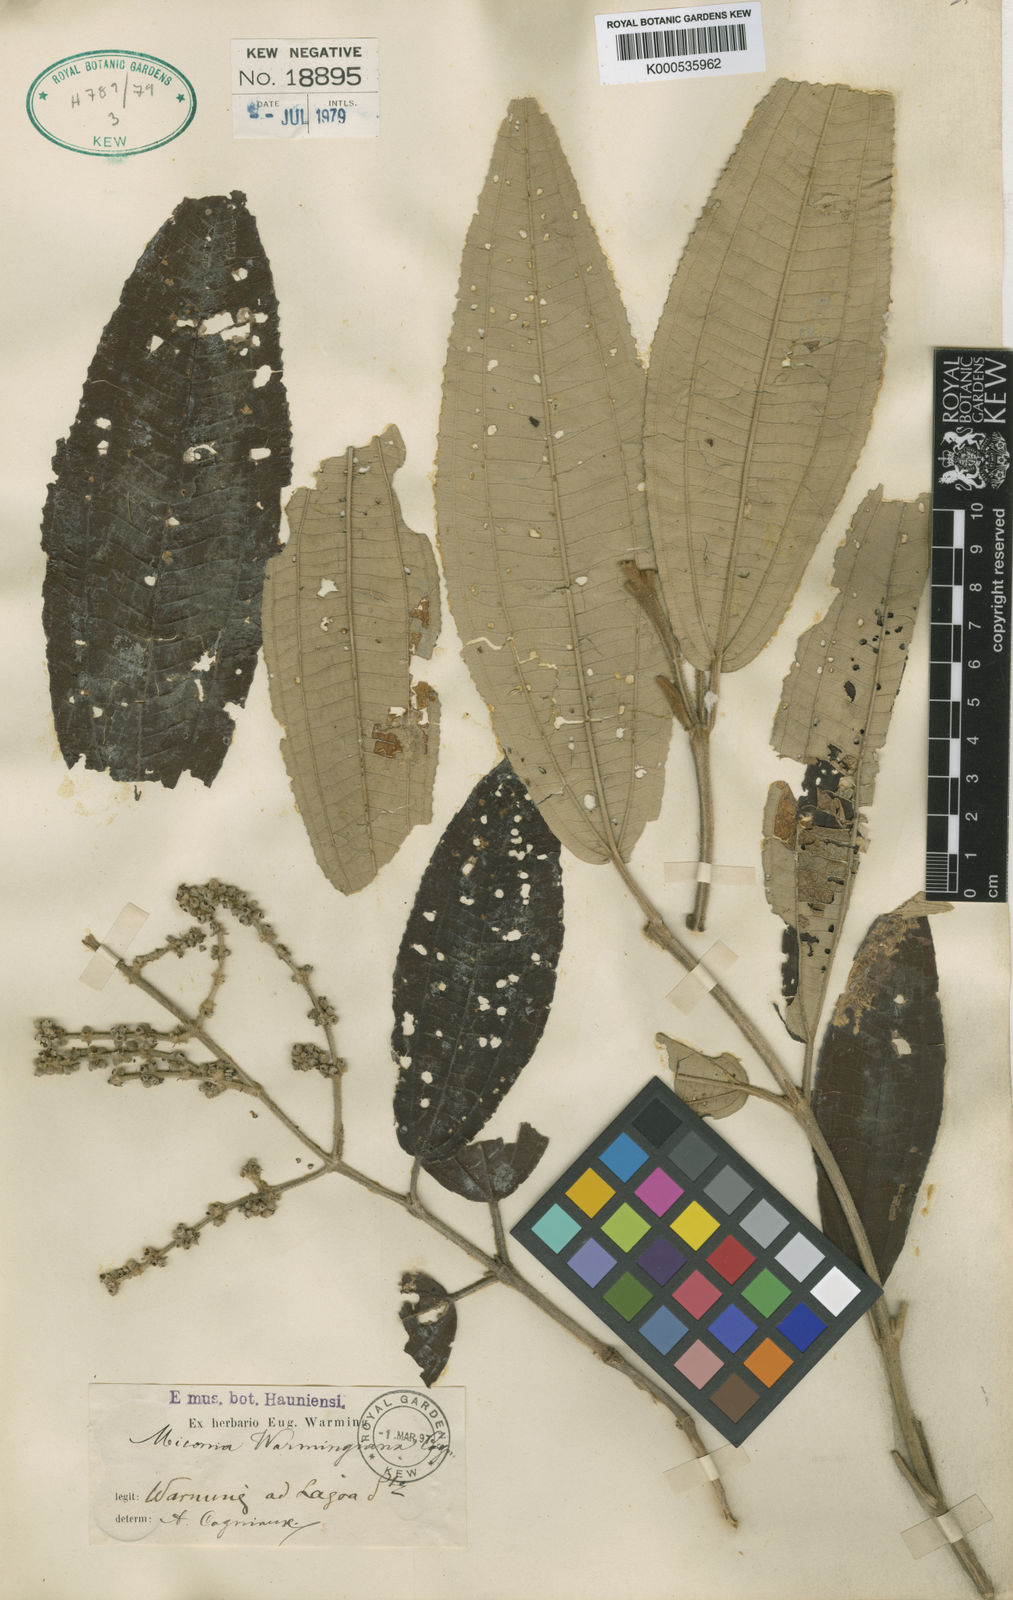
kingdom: Plantae
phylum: Tracheophyta
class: Magnoliopsida
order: Myrtales
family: Melastomataceae
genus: Miconia
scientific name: Miconia warmingiana
